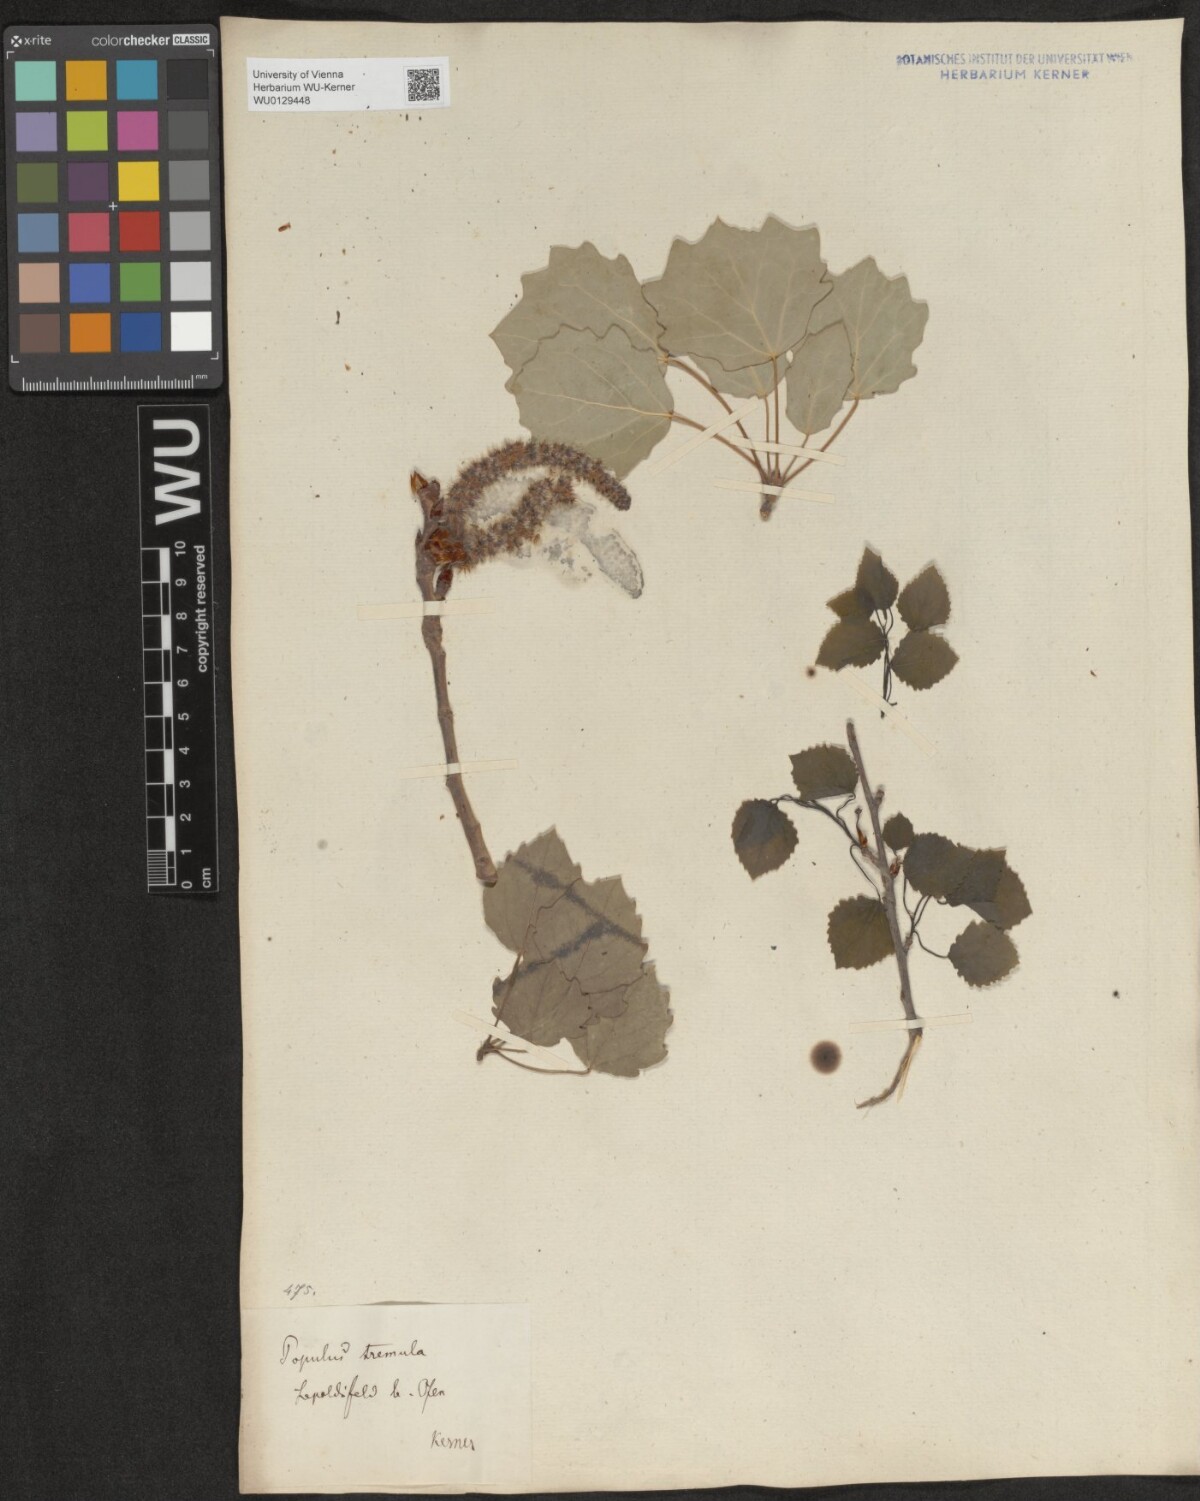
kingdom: Plantae
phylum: Tracheophyta
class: Magnoliopsida
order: Malpighiales
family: Salicaceae
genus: Populus
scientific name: Populus tremula
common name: European aspen
